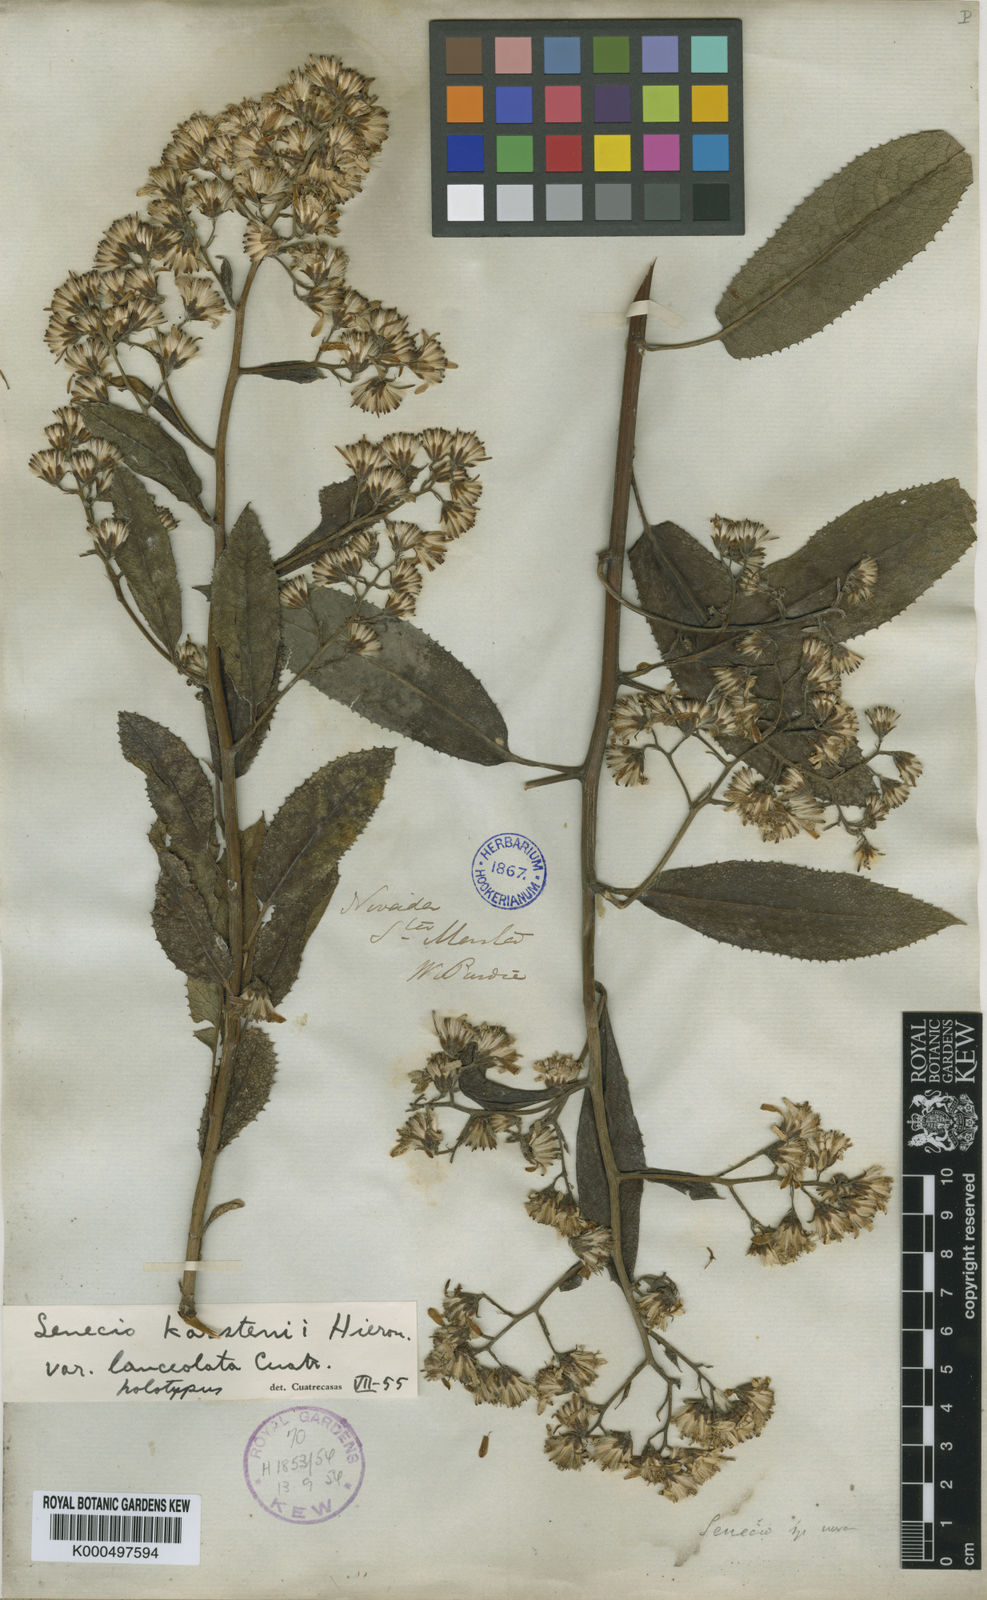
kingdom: Plantae
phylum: Tracheophyta
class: Magnoliopsida
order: Asterales
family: Asteraceae
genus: Dendrophorbium
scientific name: Dendrophorbium kleinioides
